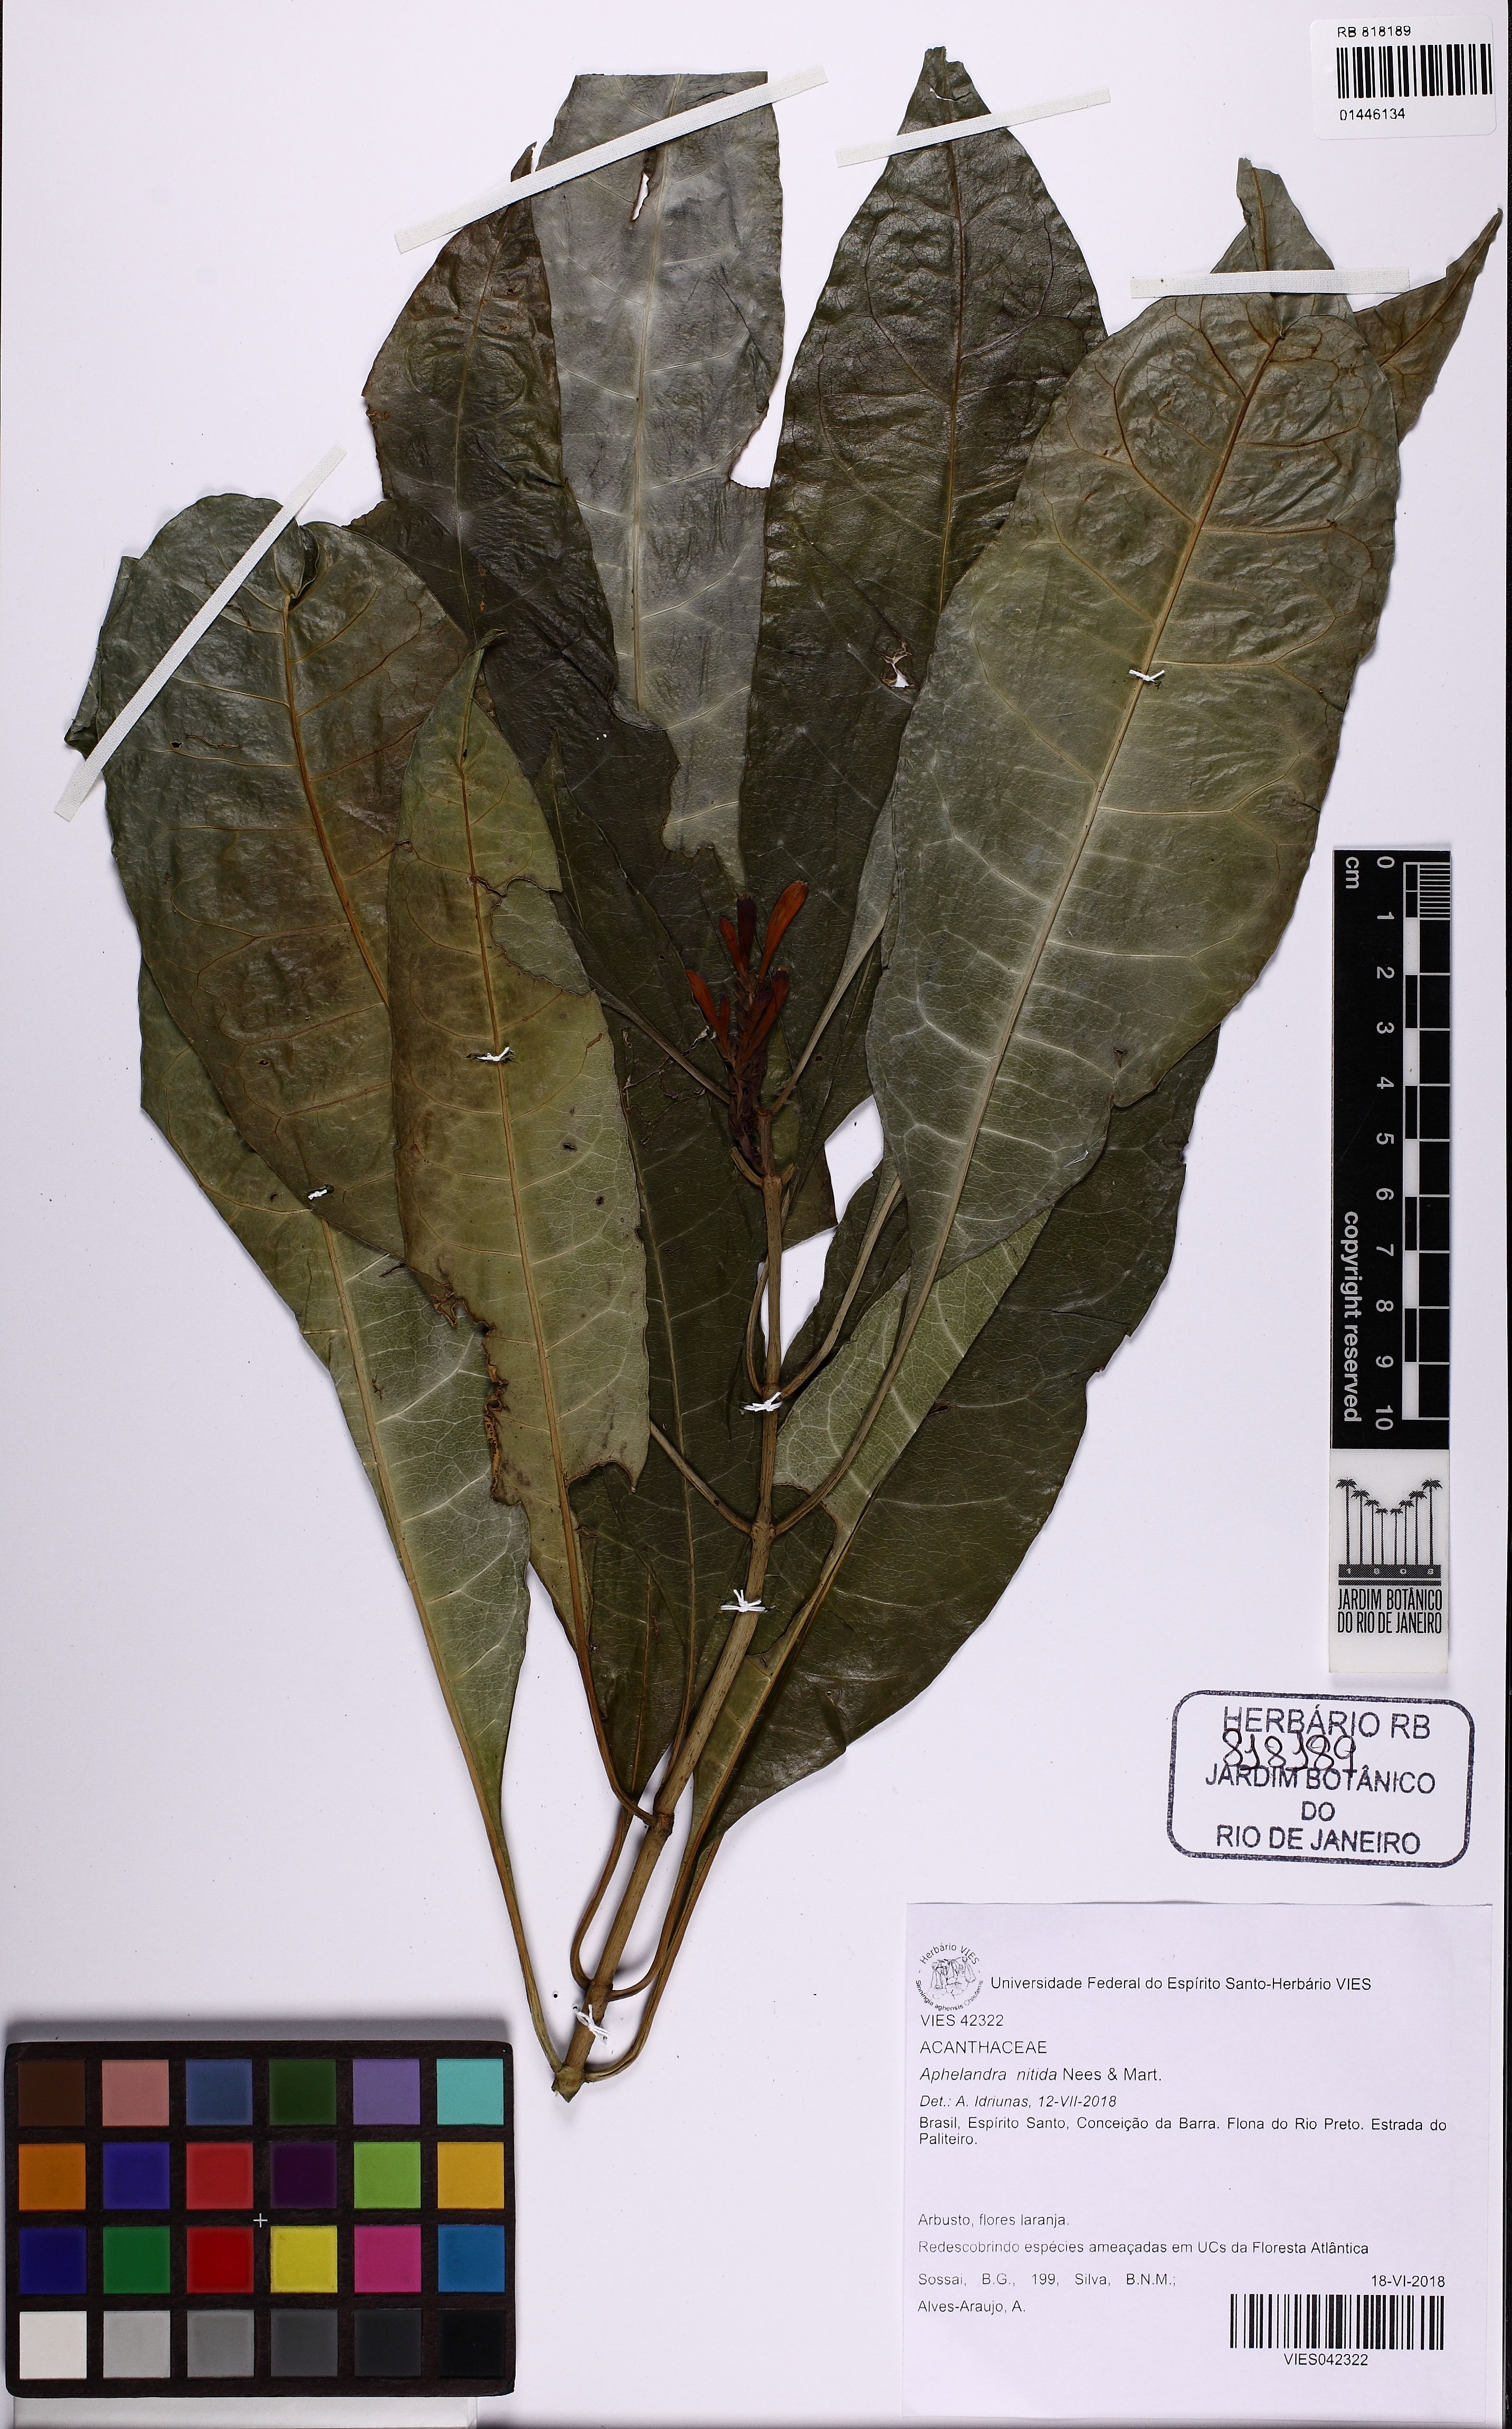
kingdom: Plantae
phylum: Tracheophyta
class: Magnoliopsida
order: Lamiales
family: Acanthaceae
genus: Aphelandra
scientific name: Aphelandra nitida
